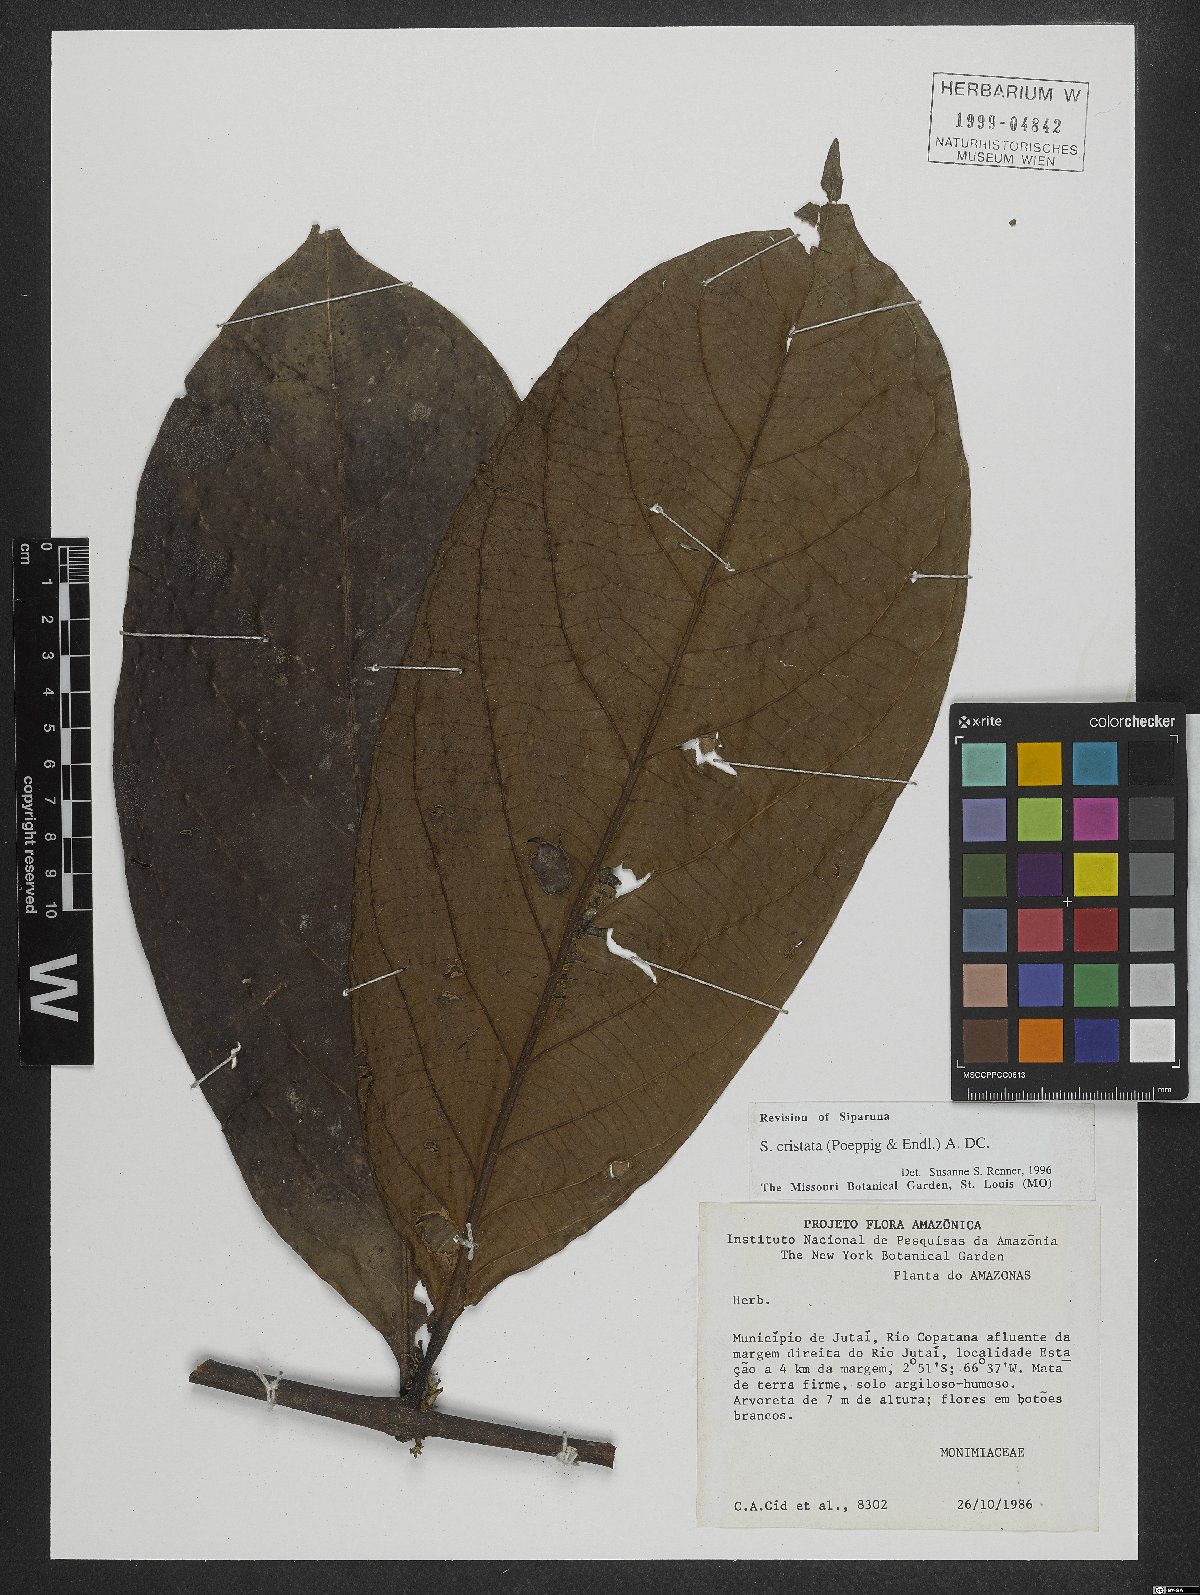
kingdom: Plantae
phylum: Tracheophyta
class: Magnoliopsida
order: Laurales
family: Siparunaceae
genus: Siparuna
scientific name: Siparuna cristata
